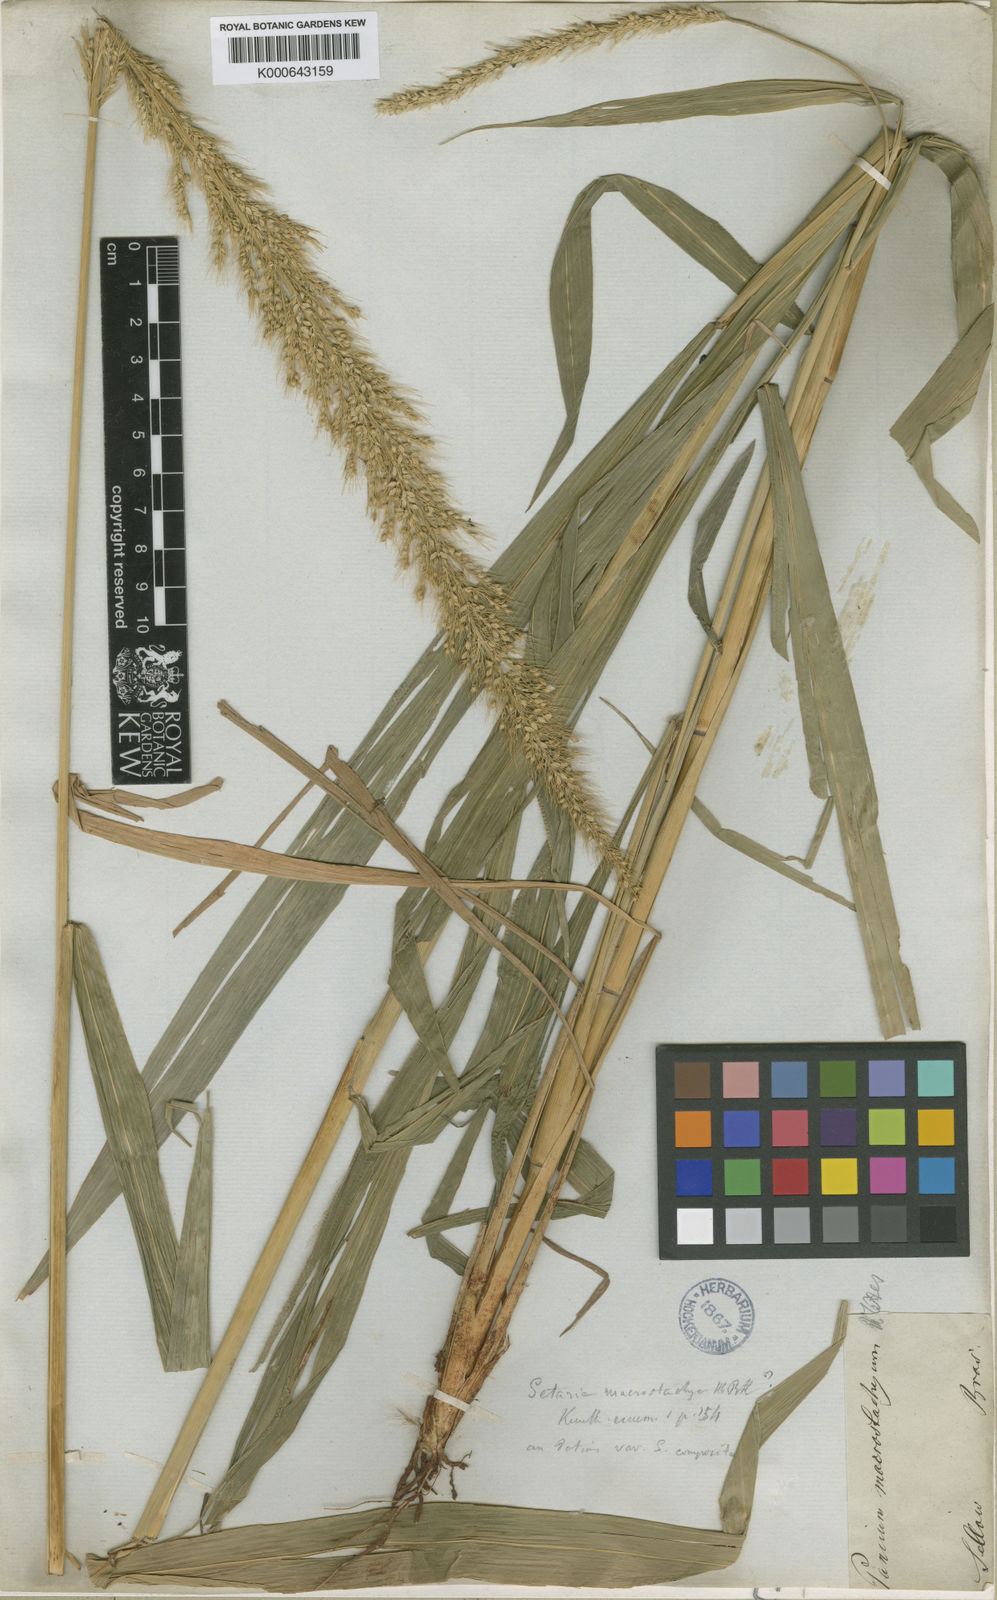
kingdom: Plantae
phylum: Tracheophyta
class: Liliopsida
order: Poales
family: Poaceae
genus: Setaria
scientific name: Setaria vulpiseta
